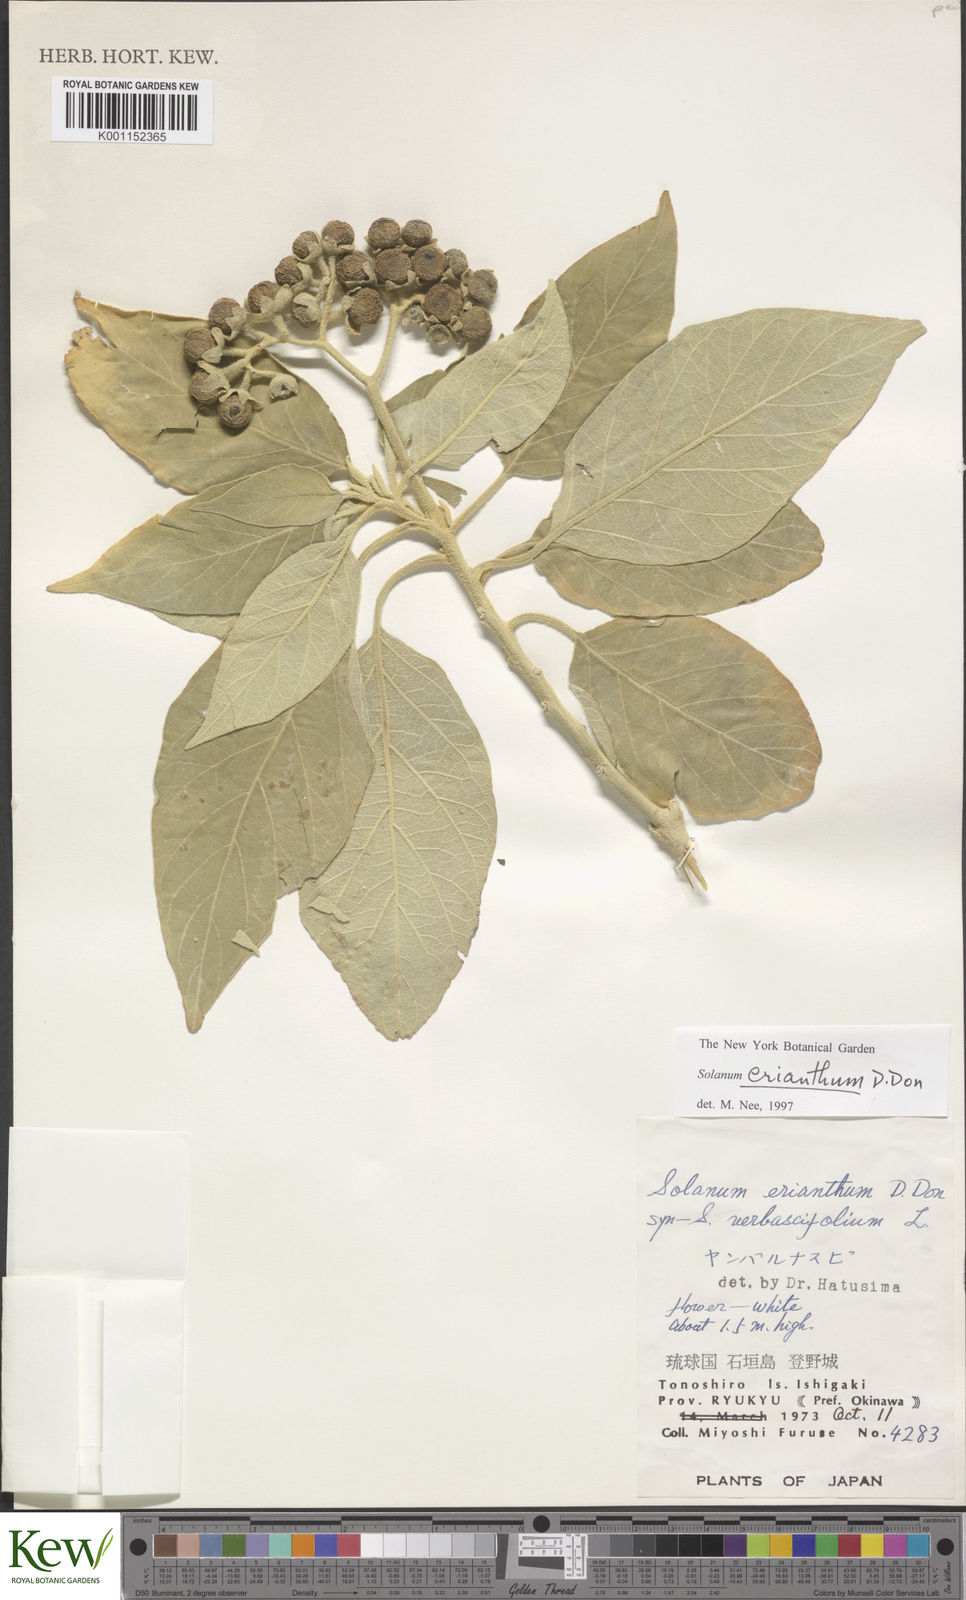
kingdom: Plantae
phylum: Tracheophyta
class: Magnoliopsida
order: Solanales
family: Solanaceae
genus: Solanum
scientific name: Solanum erianthum
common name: Tobacco-tree
